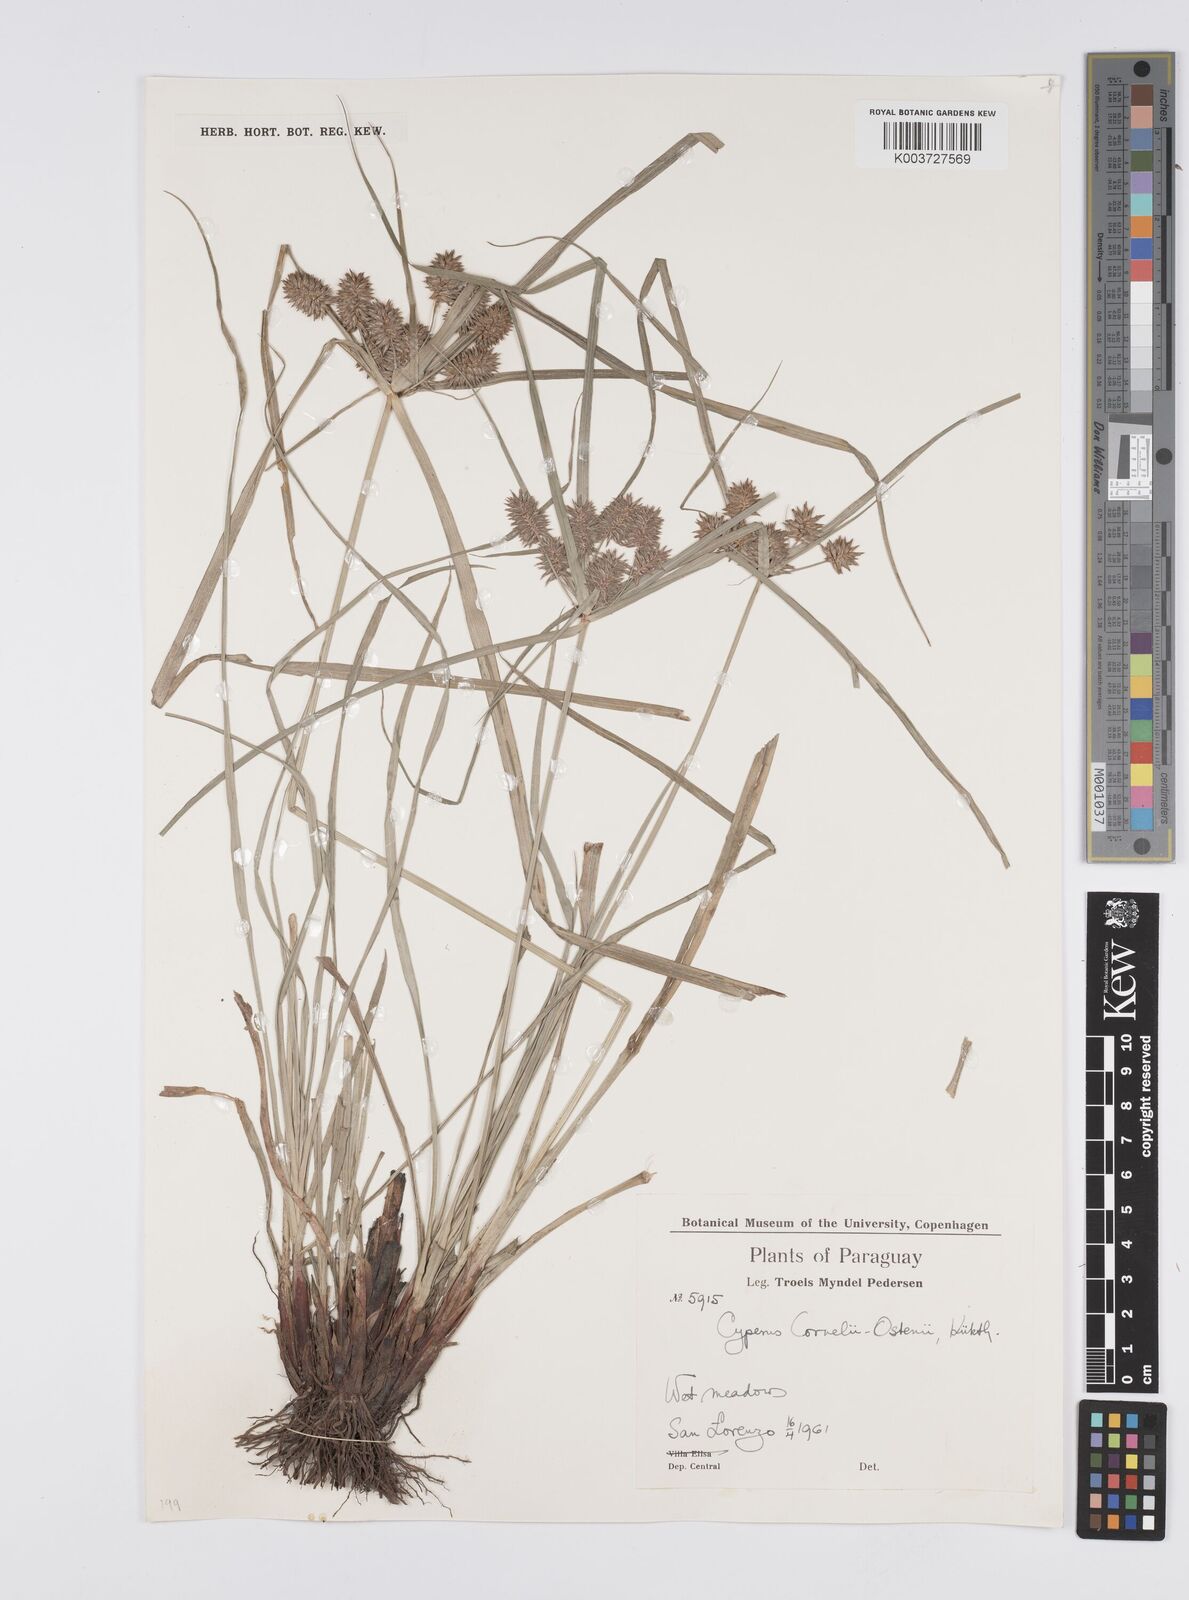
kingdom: Plantae
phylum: Tracheophyta
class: Liliopsida
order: Poales
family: Cyperaceae
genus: Cyperus
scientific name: Cyperus cornelii-ostenii
